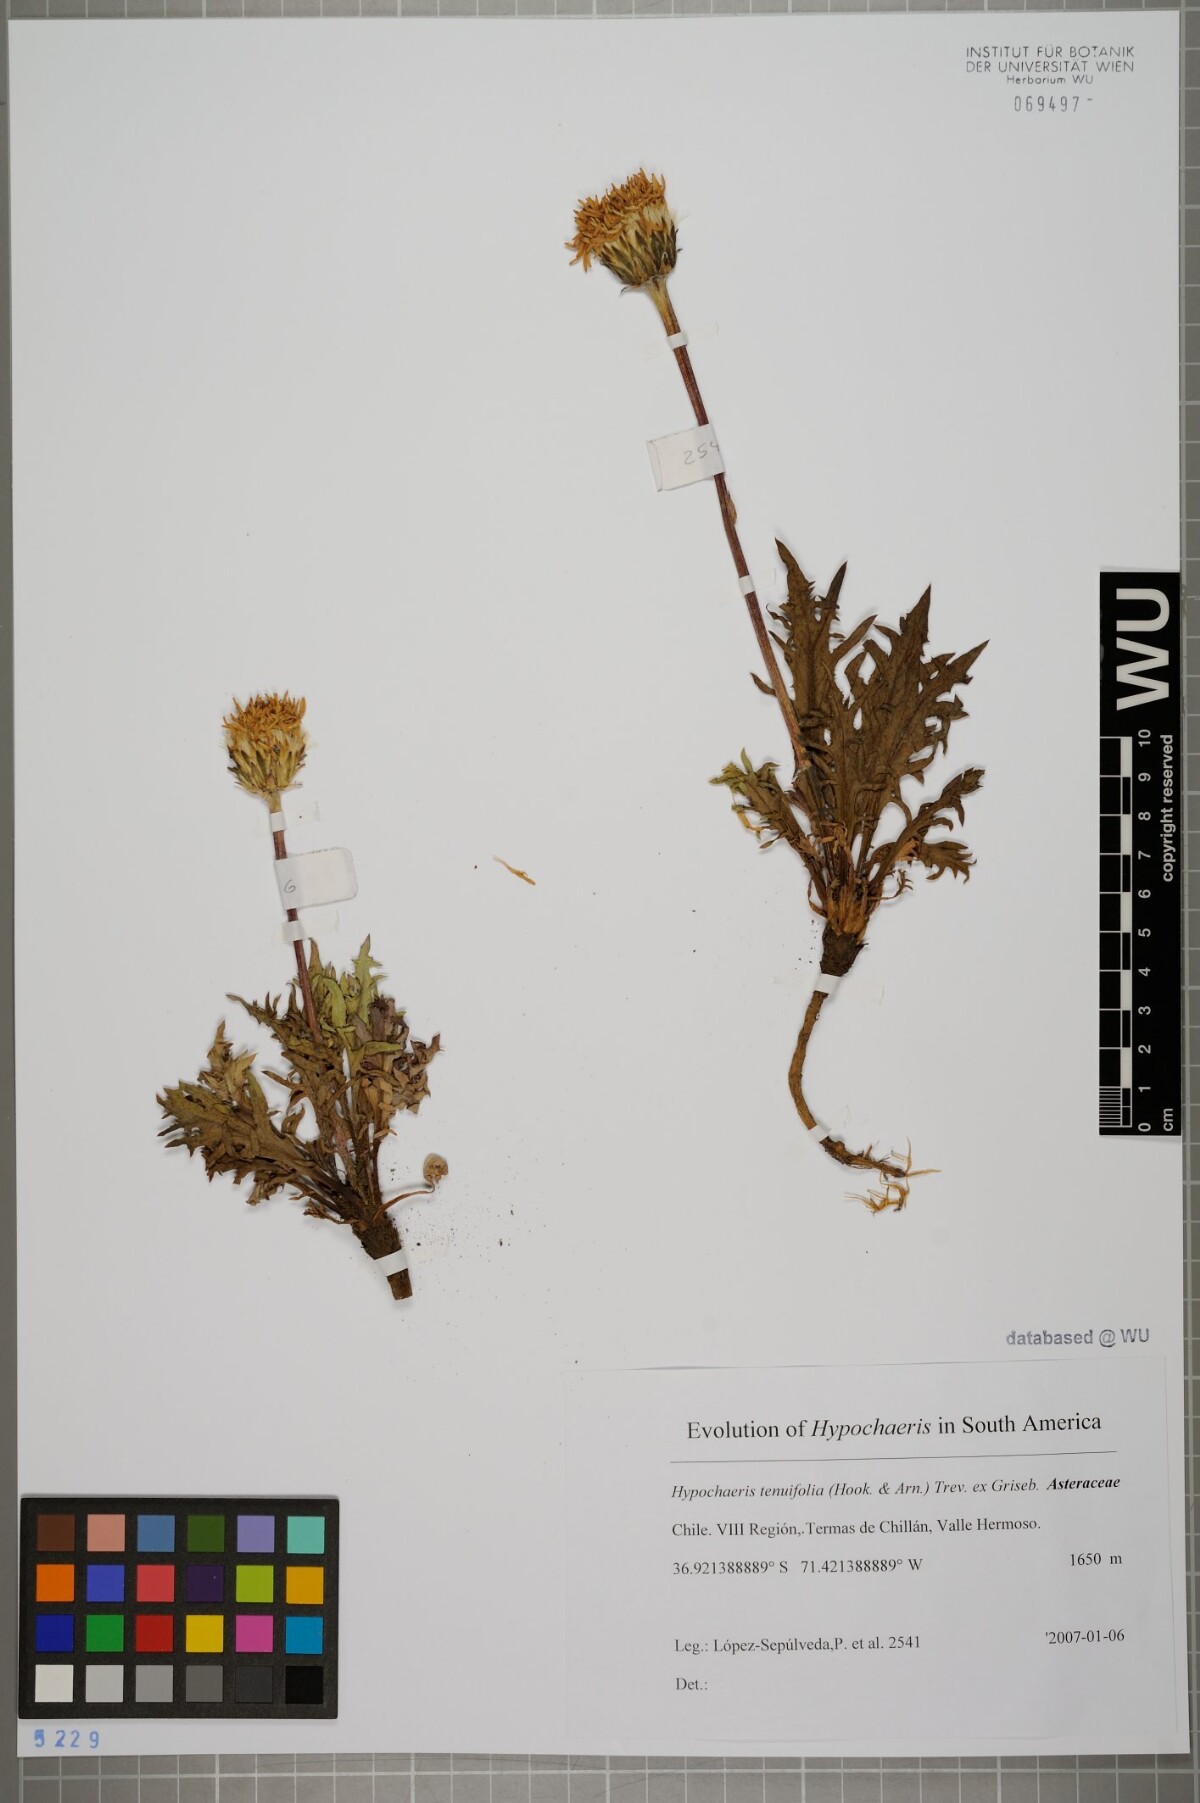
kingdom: Plantae
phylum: Tracheophyta
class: Magnoliopsida
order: Asterales
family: Asteraceae
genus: Hypochaeris
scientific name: Hypochaeris tenuifolia
